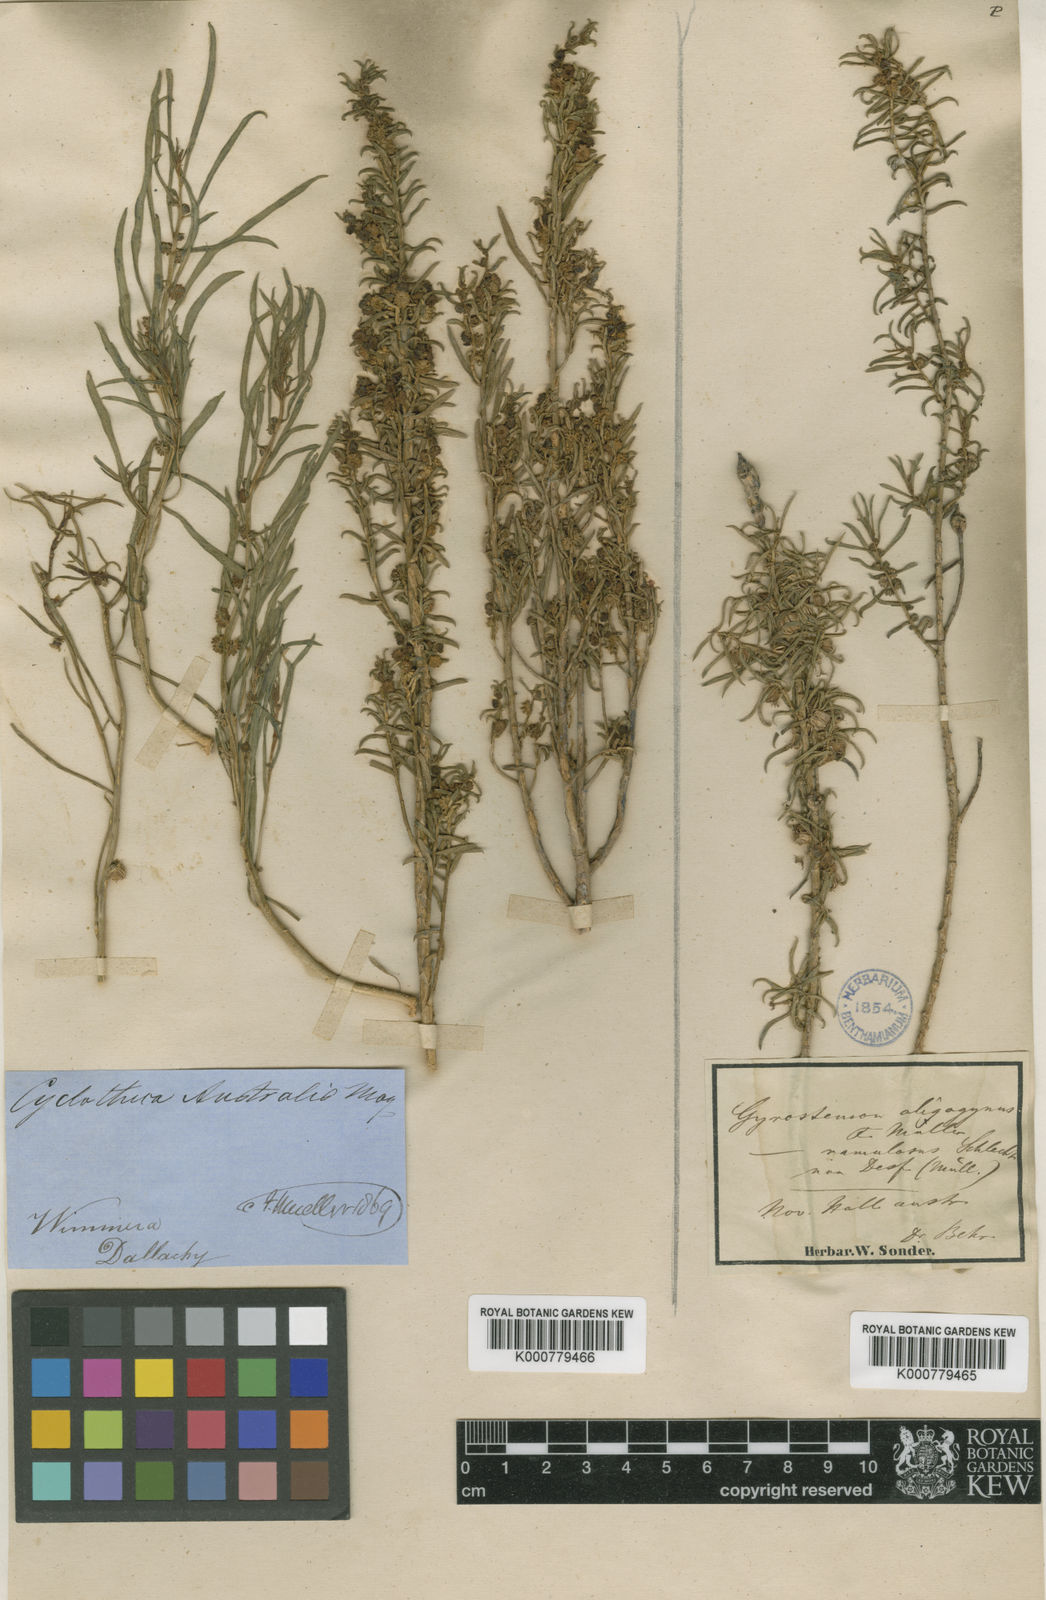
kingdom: Plantae
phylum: Tracheophyta
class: Magnoliopsida
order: Brassicales
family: Gyrostemonaceae
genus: Gyrostemon
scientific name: Gyrostemon australasicus
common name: Wheelfruit
